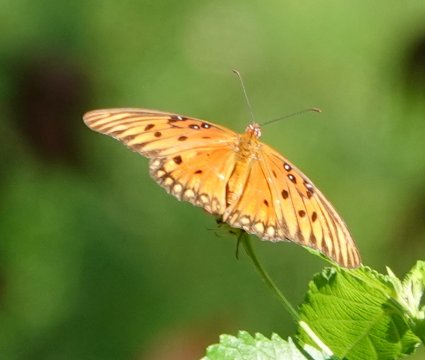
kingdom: Animalia
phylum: Arthropoda
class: Insecta
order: Lepidoptera
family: Nymphalidae
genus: Dione
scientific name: Dione vanillae
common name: Gulf Fritillary
